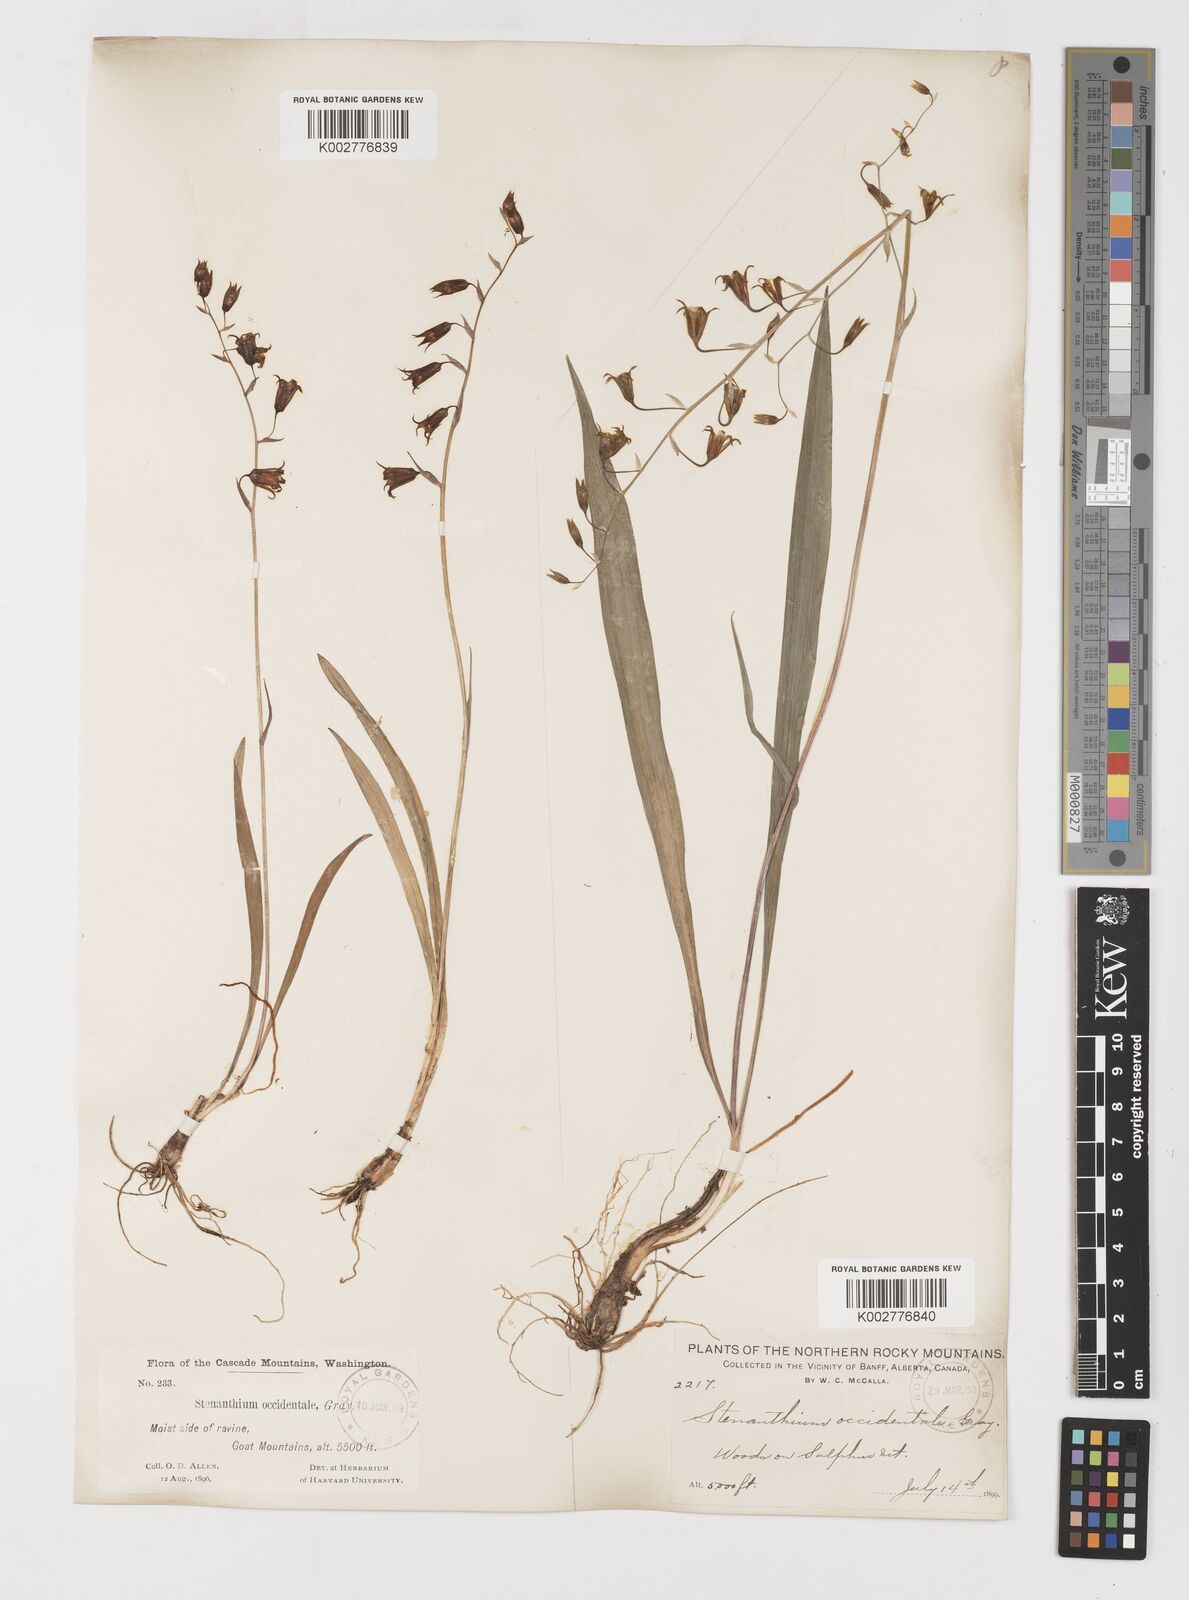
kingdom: Plantae
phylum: Tracheophyta
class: Liliopsida
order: Liliales
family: Melanthiaceae
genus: Anticlea
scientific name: Anticlea occidentalis
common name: Bronze-bells
